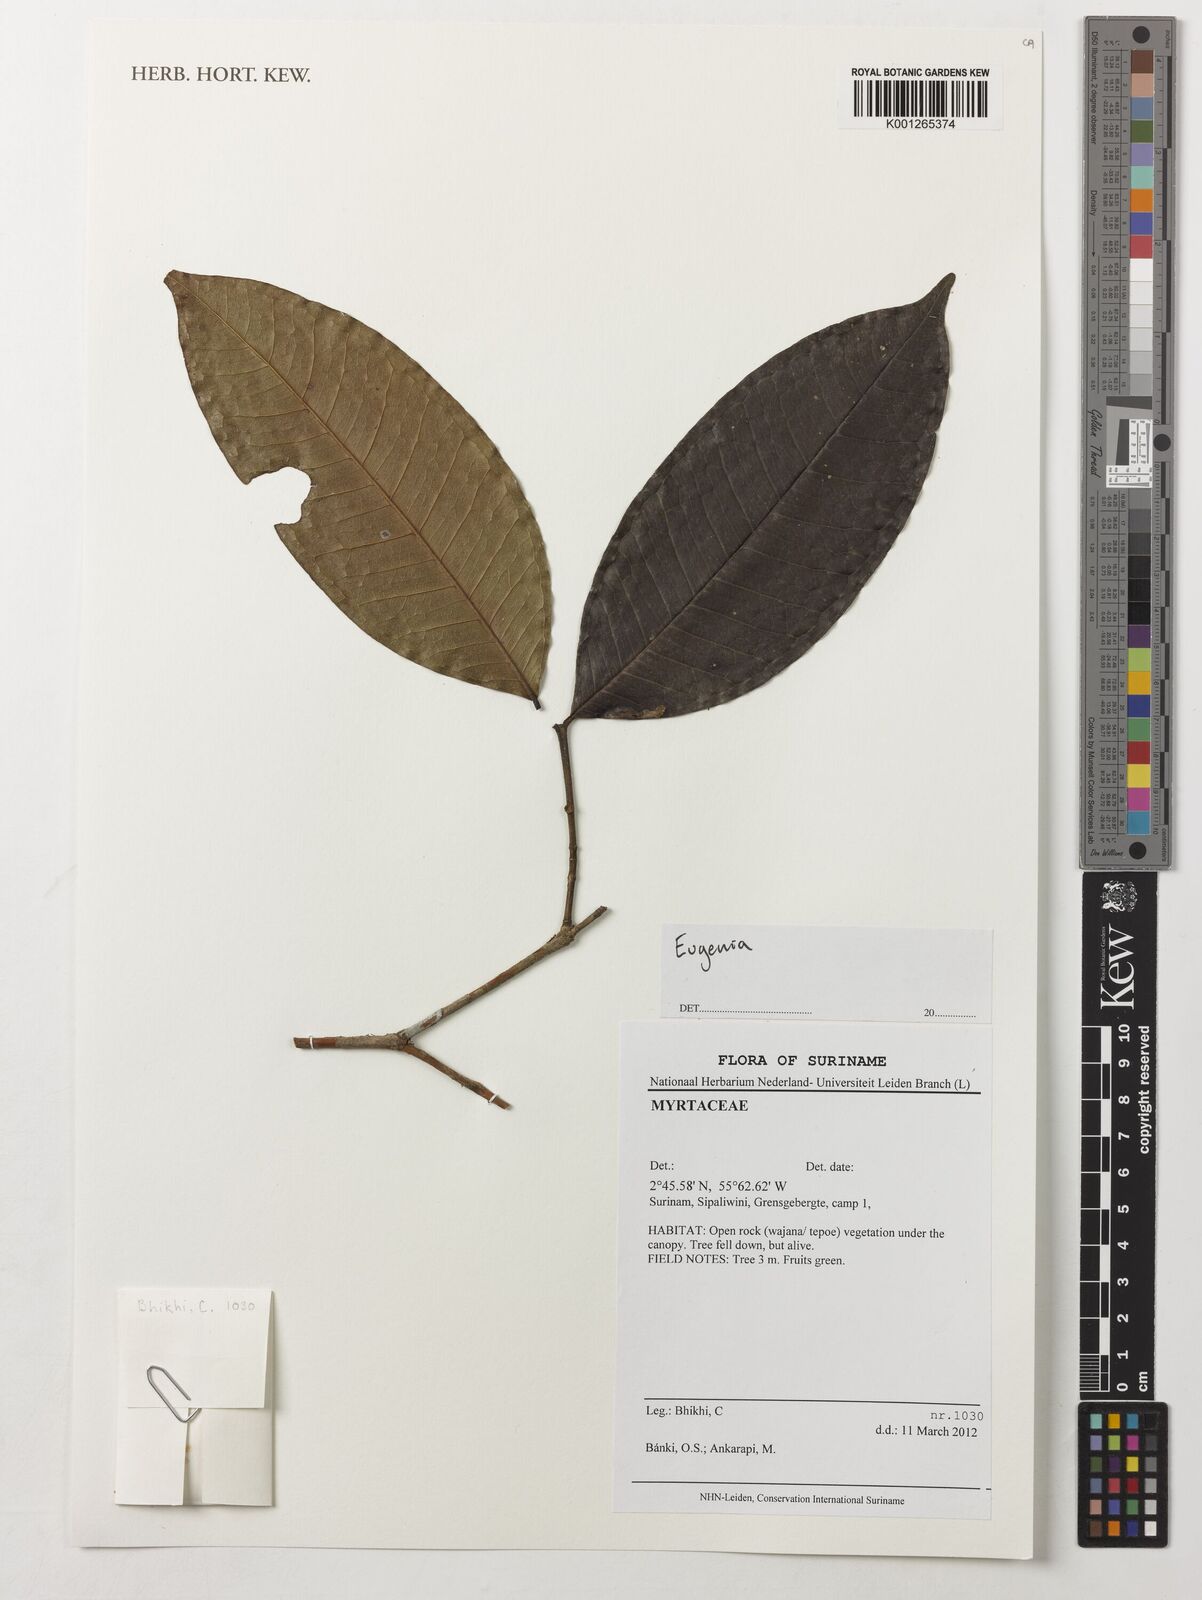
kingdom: Plantae
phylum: Tracheophyta
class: Magnoliopsida
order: Myrtales
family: Myrtaceae
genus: Eugenia
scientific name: Eugenia
